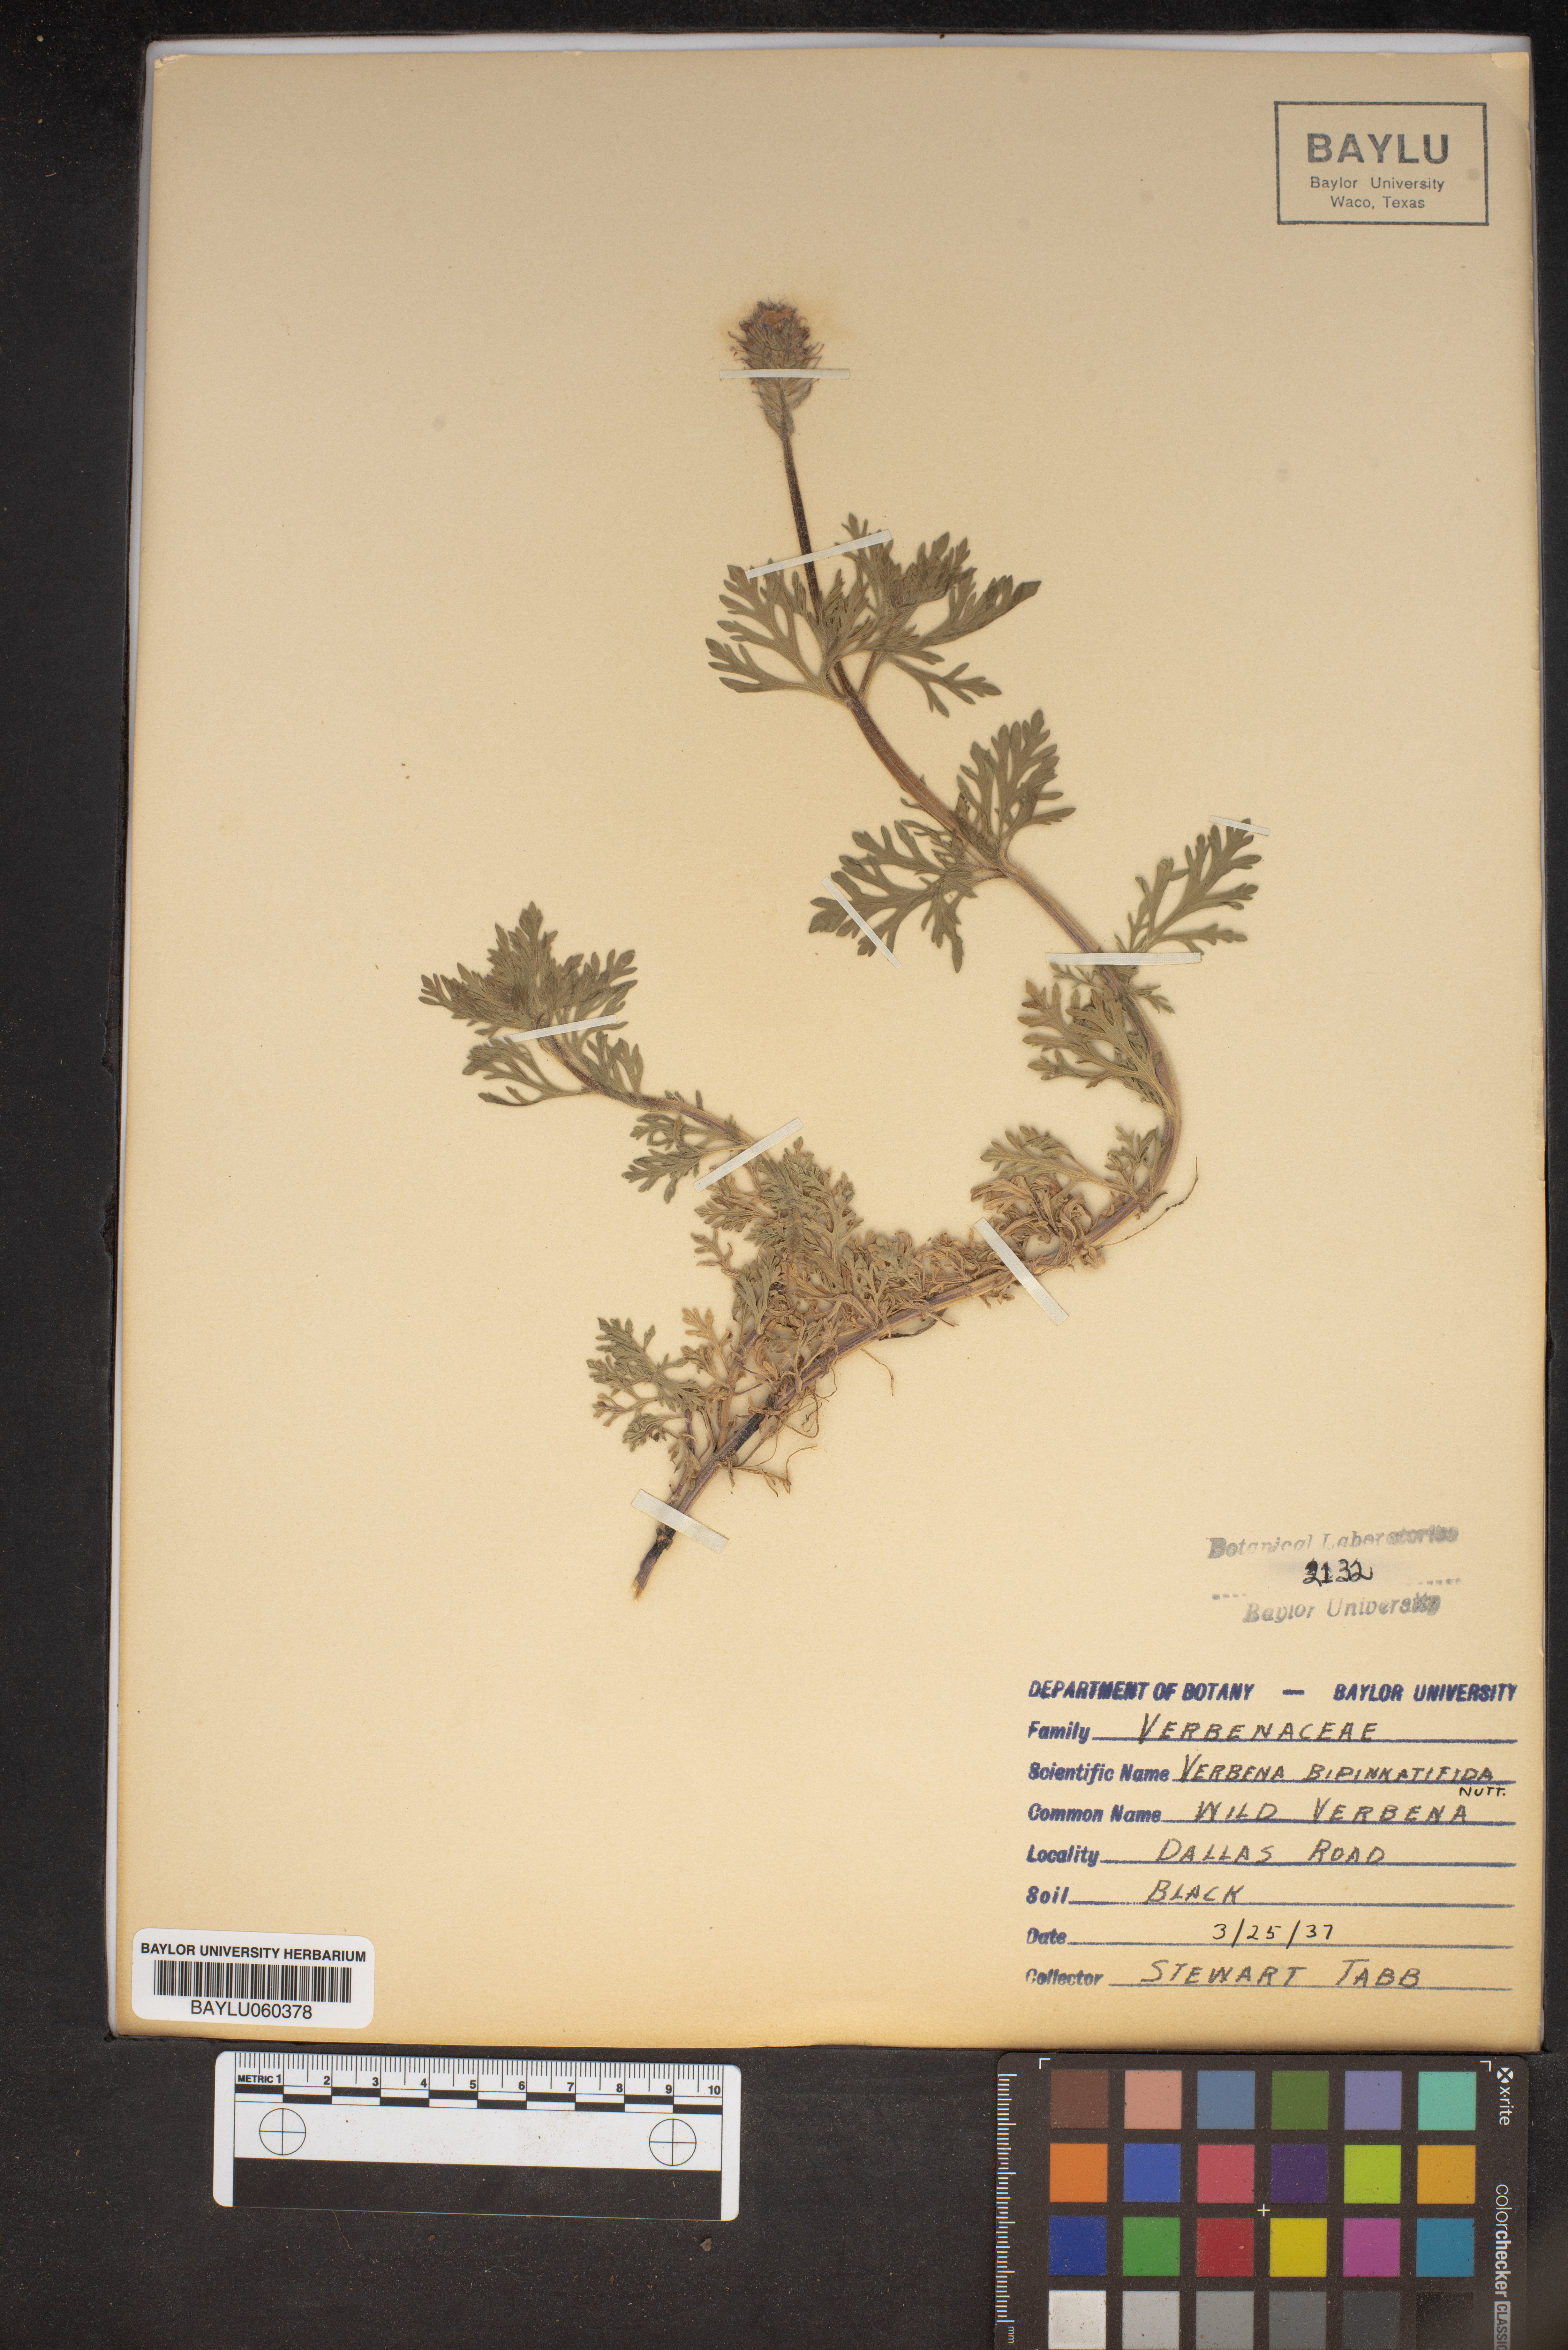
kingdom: Plantae
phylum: Tracheophyta
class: Magnoliopsida
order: Lamiales
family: Verbenaceae
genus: Verbena
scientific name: Verbena bipinnatifida
